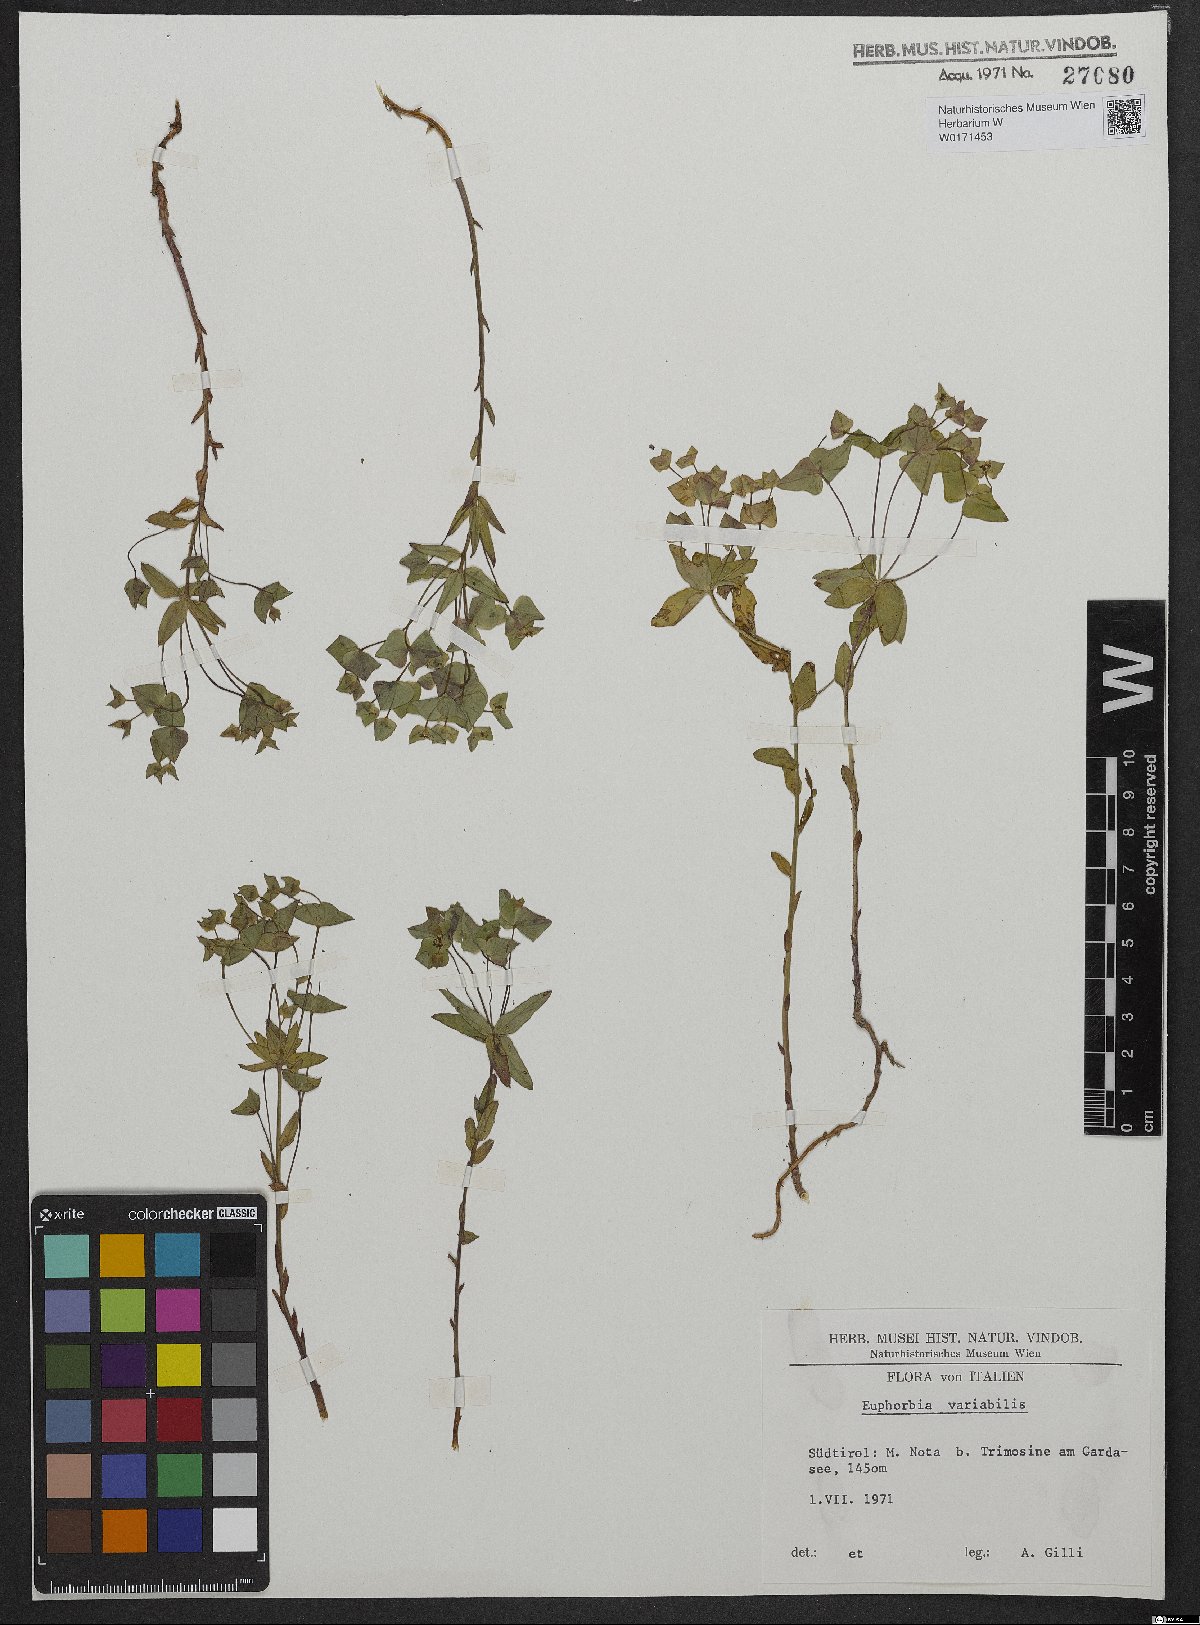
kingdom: Plantae
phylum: Tracheophyta
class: Magnoliopsida
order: Malpighiales
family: Euphorbiaceae
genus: Euphorbia
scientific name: Euphorbia variabilis
